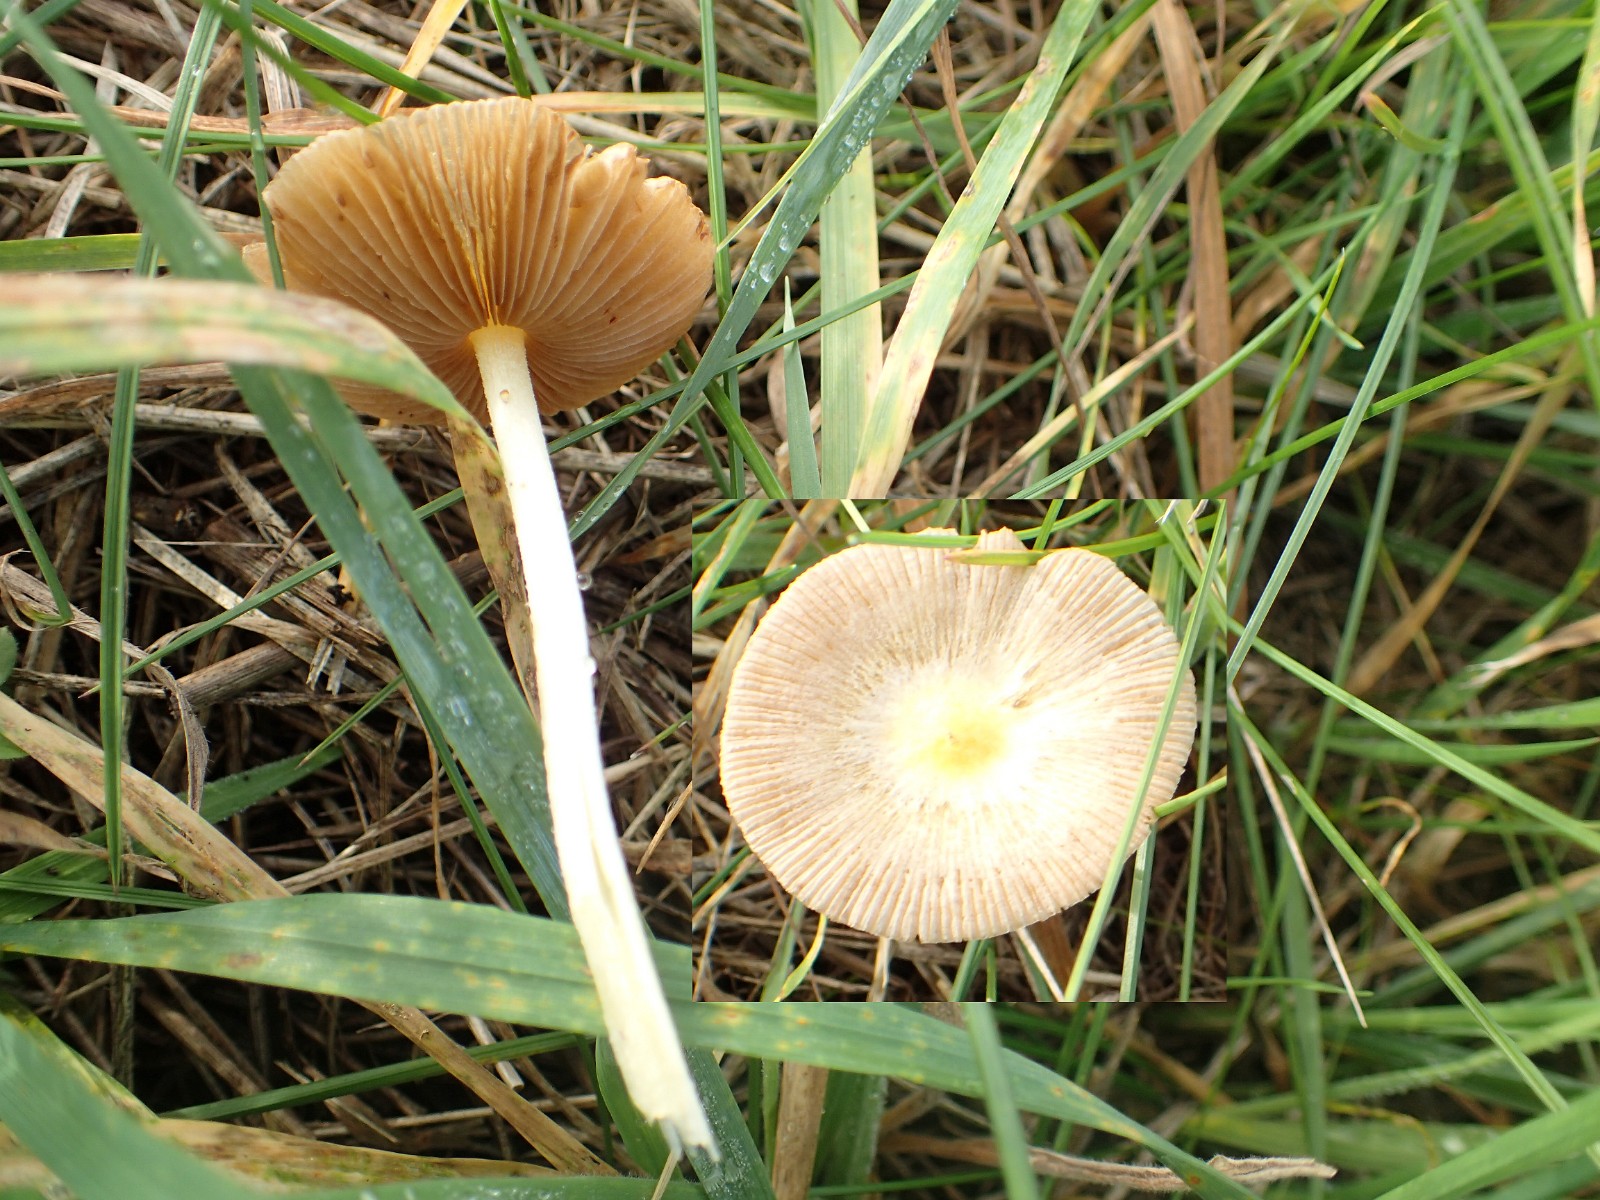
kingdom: Fungi
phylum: Basidiomycota
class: Agaricomycetes
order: Agaricales
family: Bolbitiaceae
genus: Bolbitius
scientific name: Bolbitius titubans
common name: almindelig gulhat
